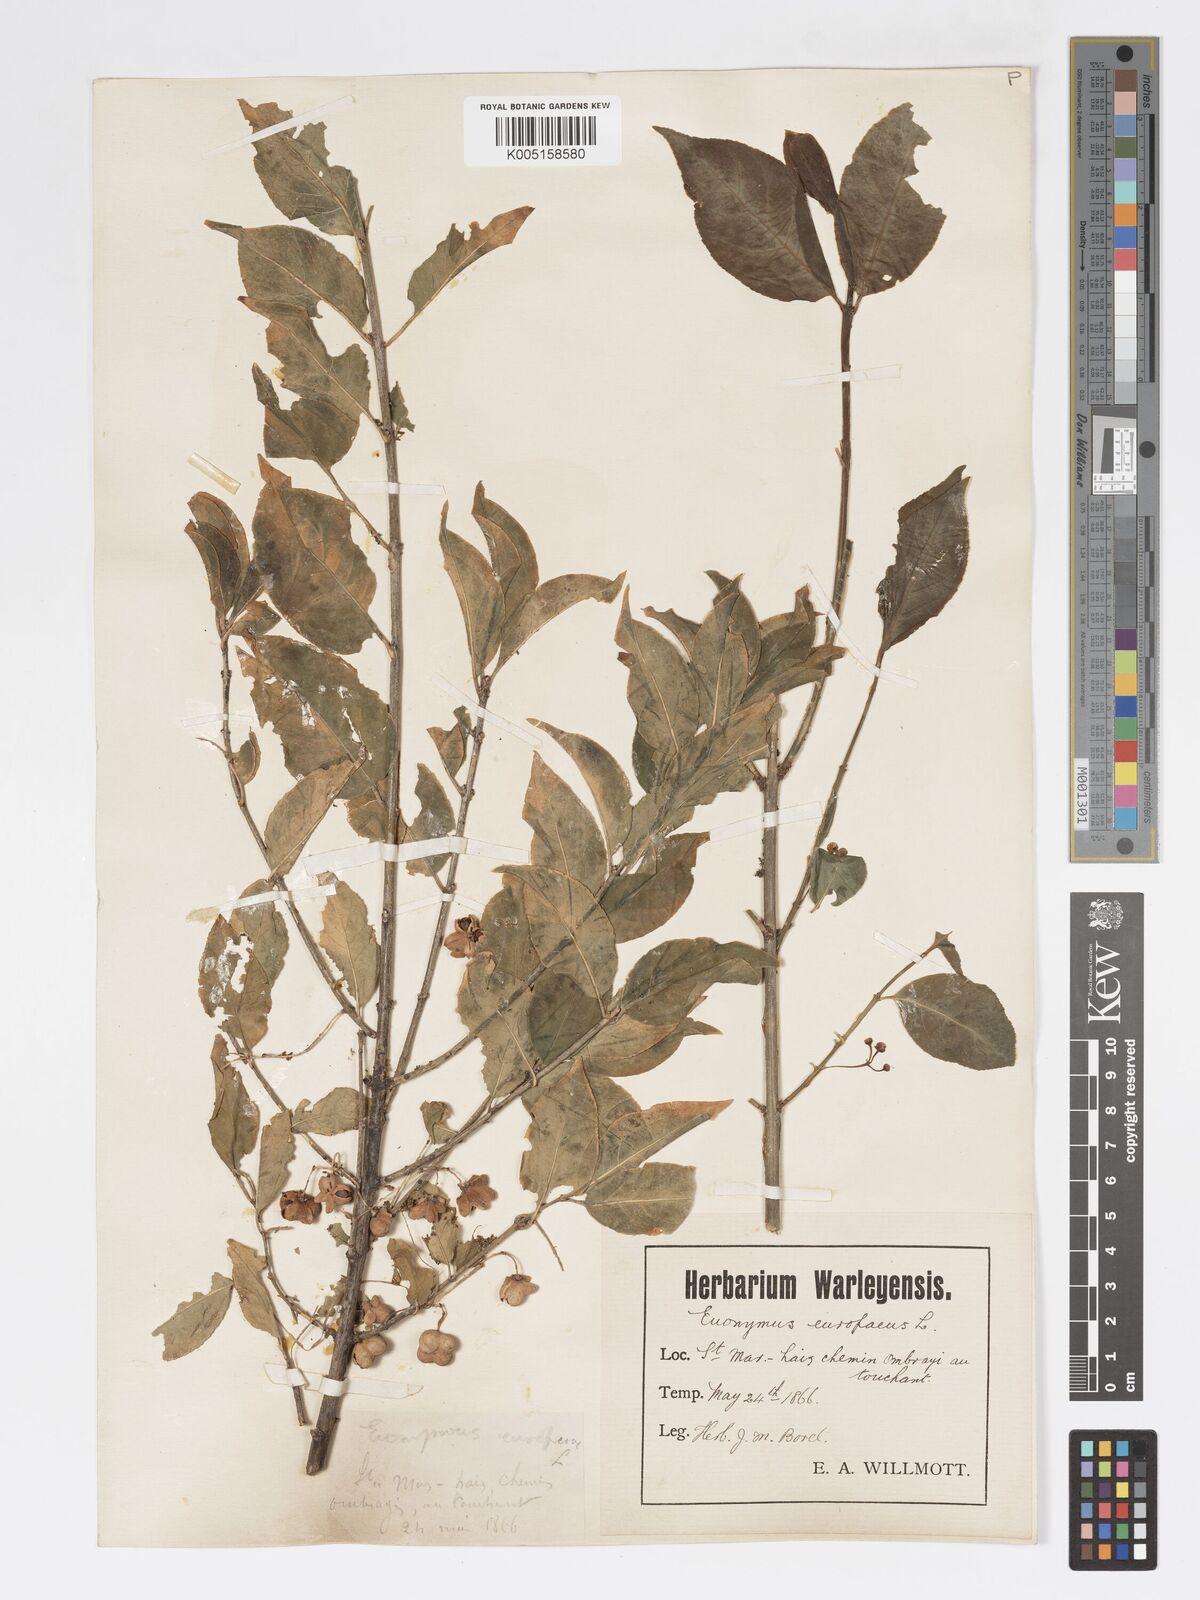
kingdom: Plantae
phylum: Tracheophyta
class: Magnoliopsida
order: Celastrales
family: Celastraceae
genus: Euonymus
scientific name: Euonymus europaeus
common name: Spindle
